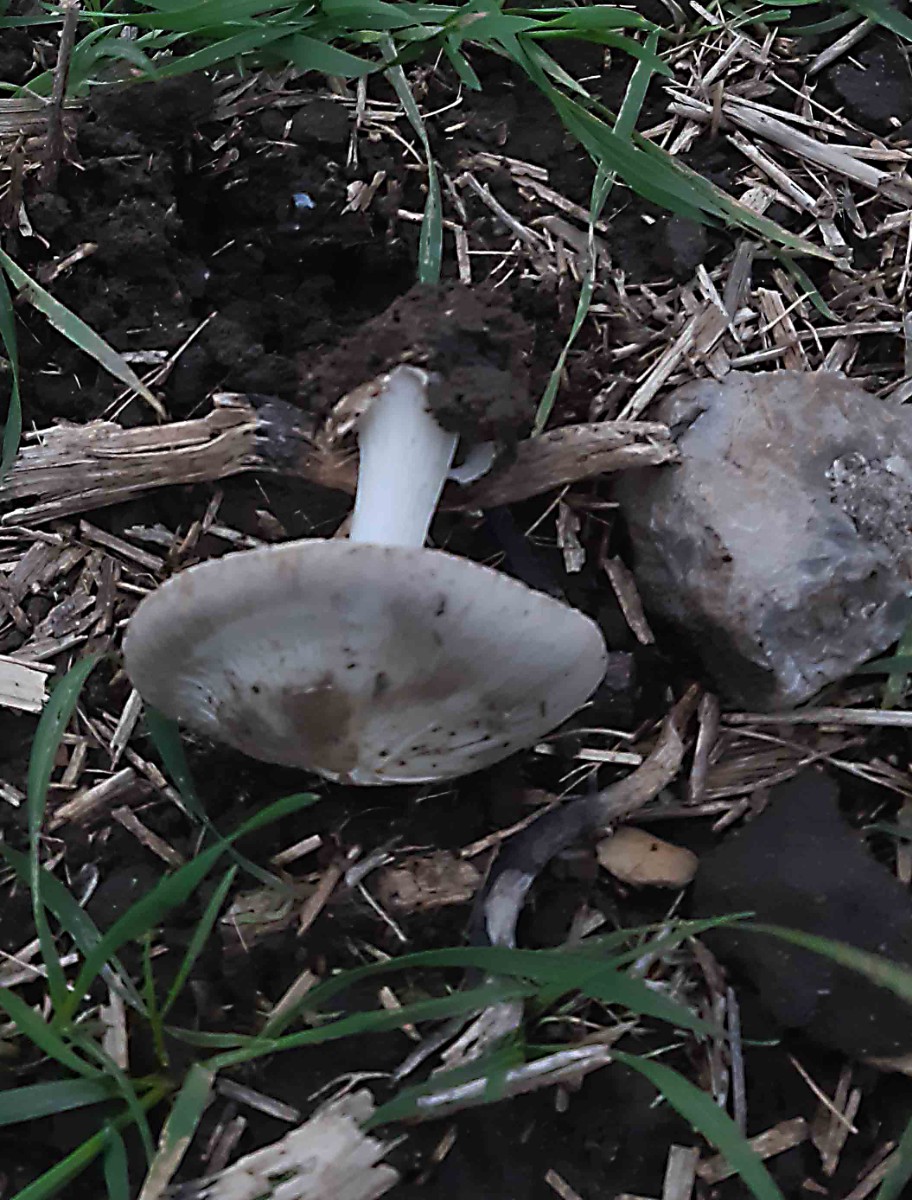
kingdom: Fungi
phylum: Basidiomycota
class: Agaricomycetes
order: Agaricales
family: Pluteaceae
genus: Volvopluteus
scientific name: Volvopluteus gloiocephalus
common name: høj posesvamp
